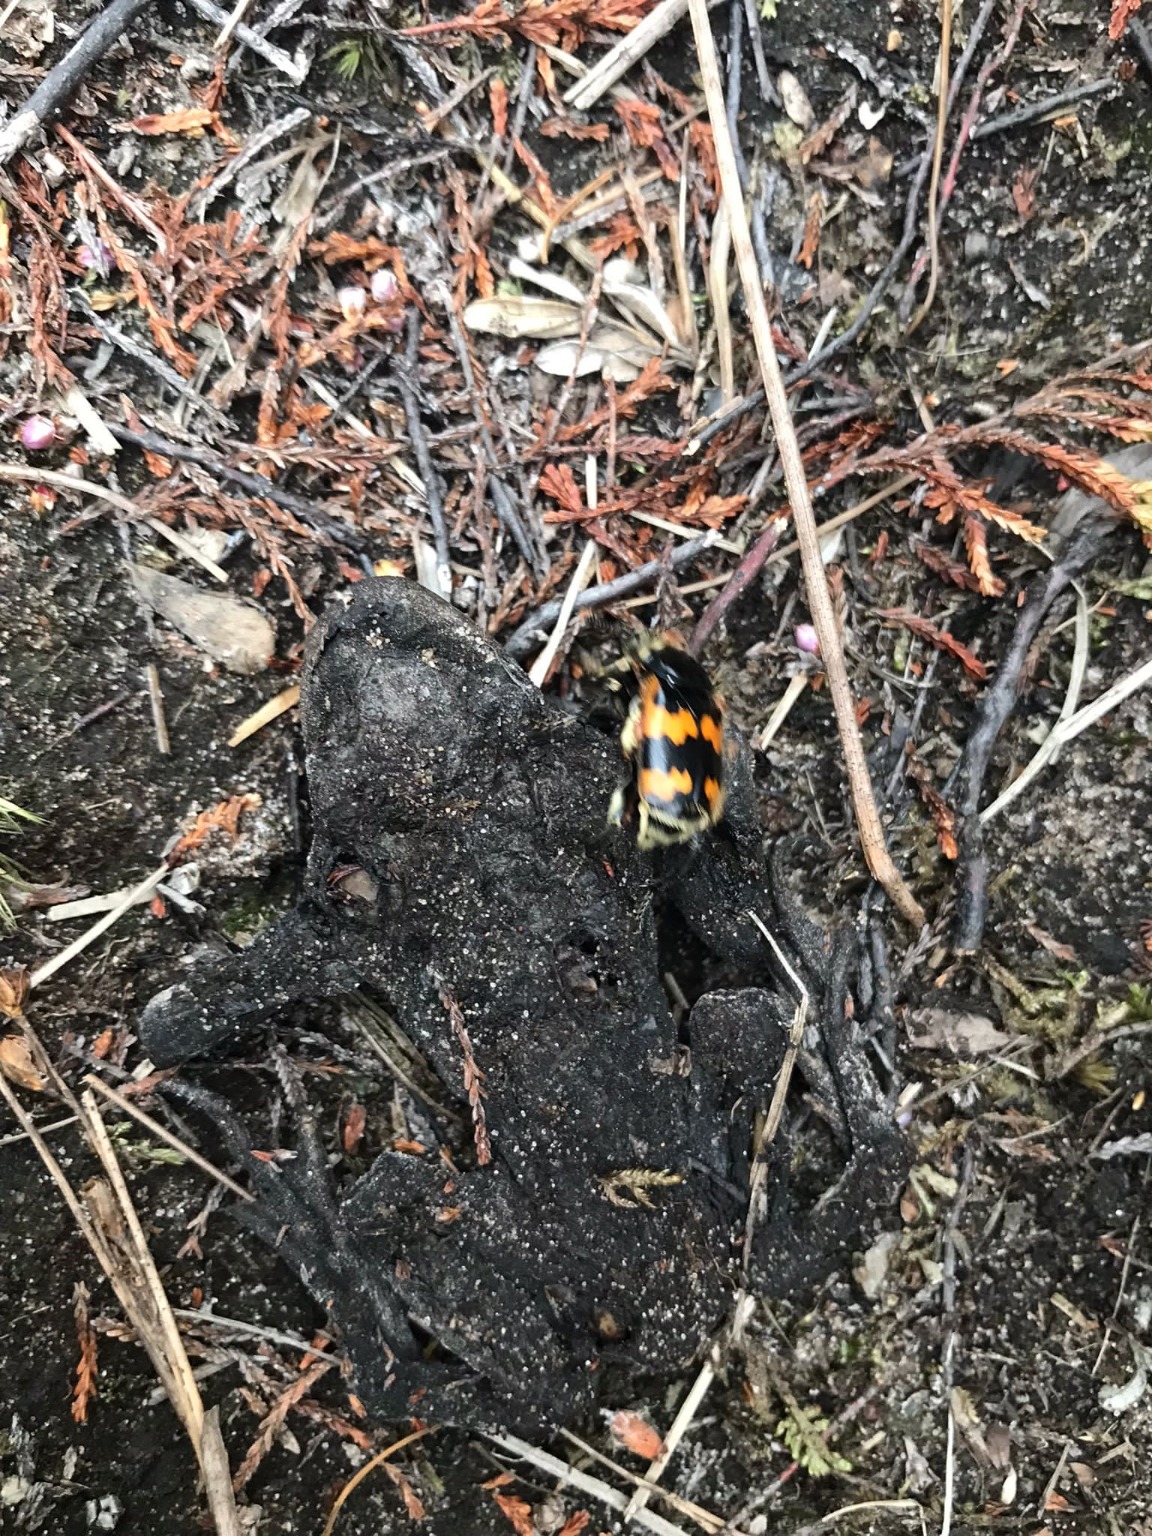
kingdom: Animalia
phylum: Arthropoda
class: Insecta
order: Coleoptera
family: Staphylinidae
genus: Nicrophorus
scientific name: Nicrophorus vespillo
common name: Krumbenet ådselgraver
